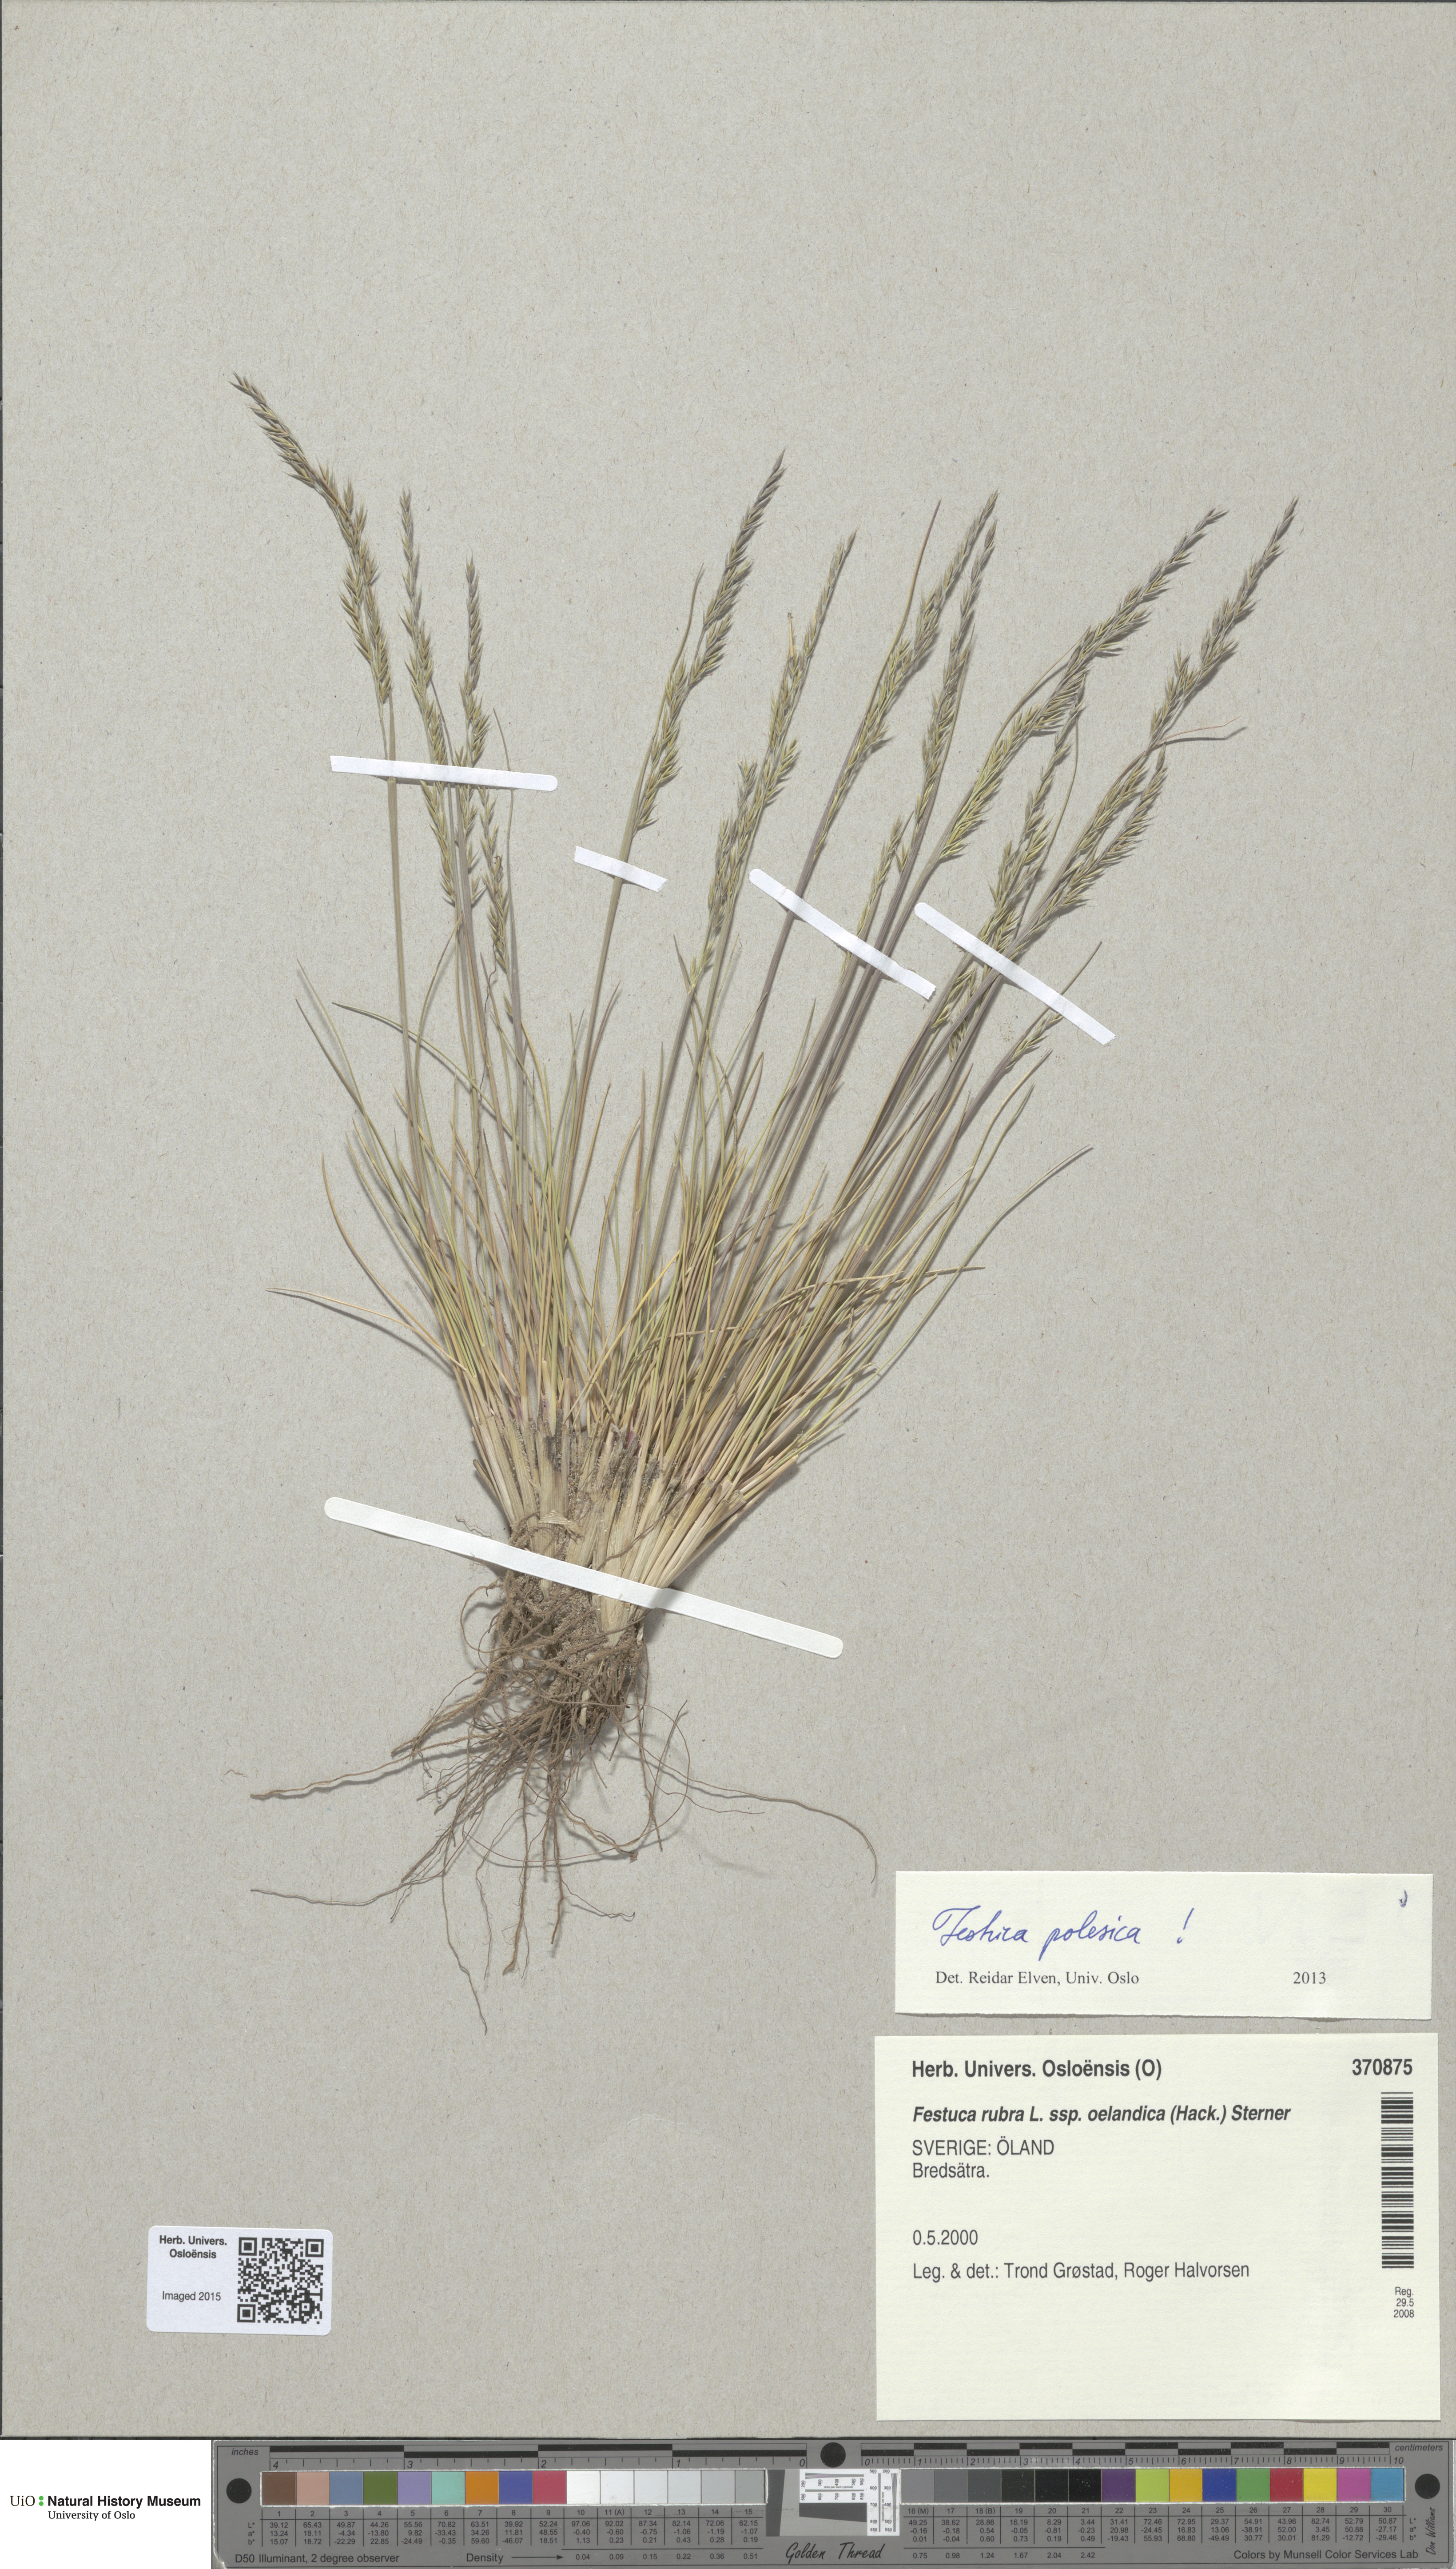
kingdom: Plantae
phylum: Tracheophyta
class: Liliopsida
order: Poales
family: Poaceae
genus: Festuca
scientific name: Festuca beckeri
